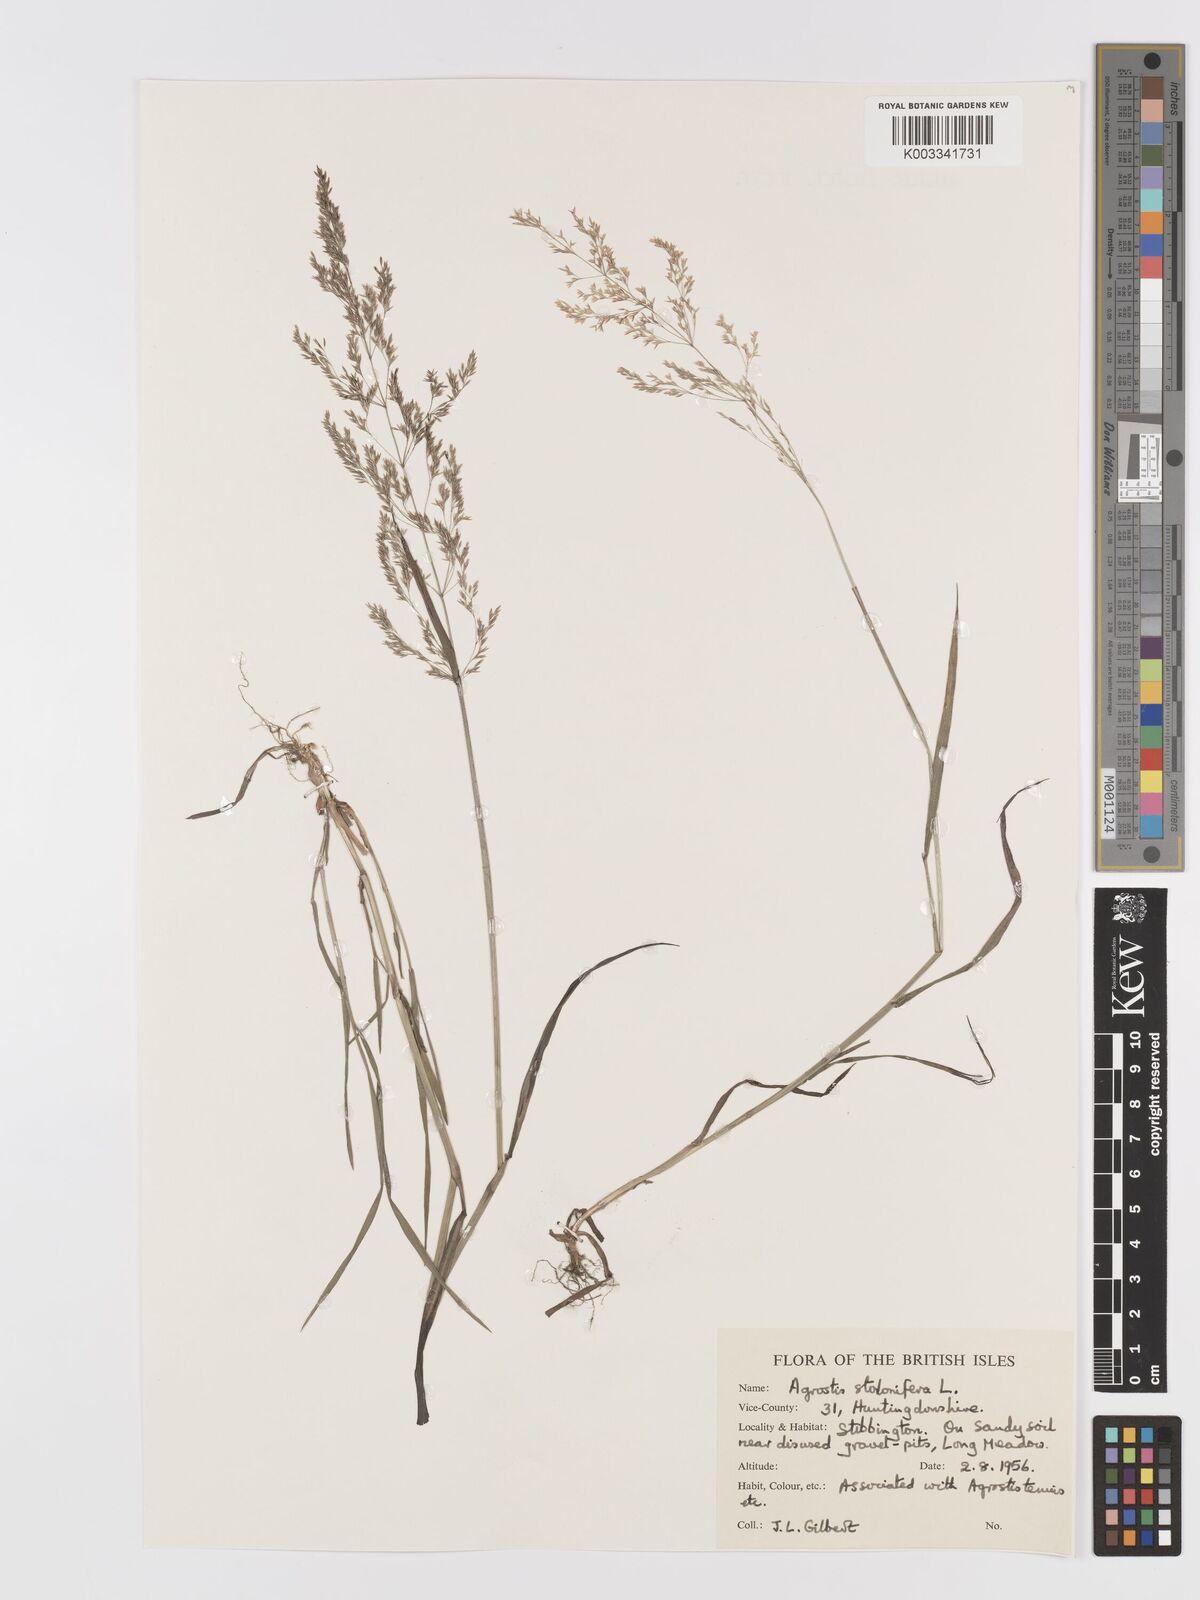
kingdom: Plantae
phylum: Tracheophyta
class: Liliopsida
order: Poales
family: Poaceae
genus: Agrostis
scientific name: Agrostis stolonifera
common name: Creeping bentgrass
